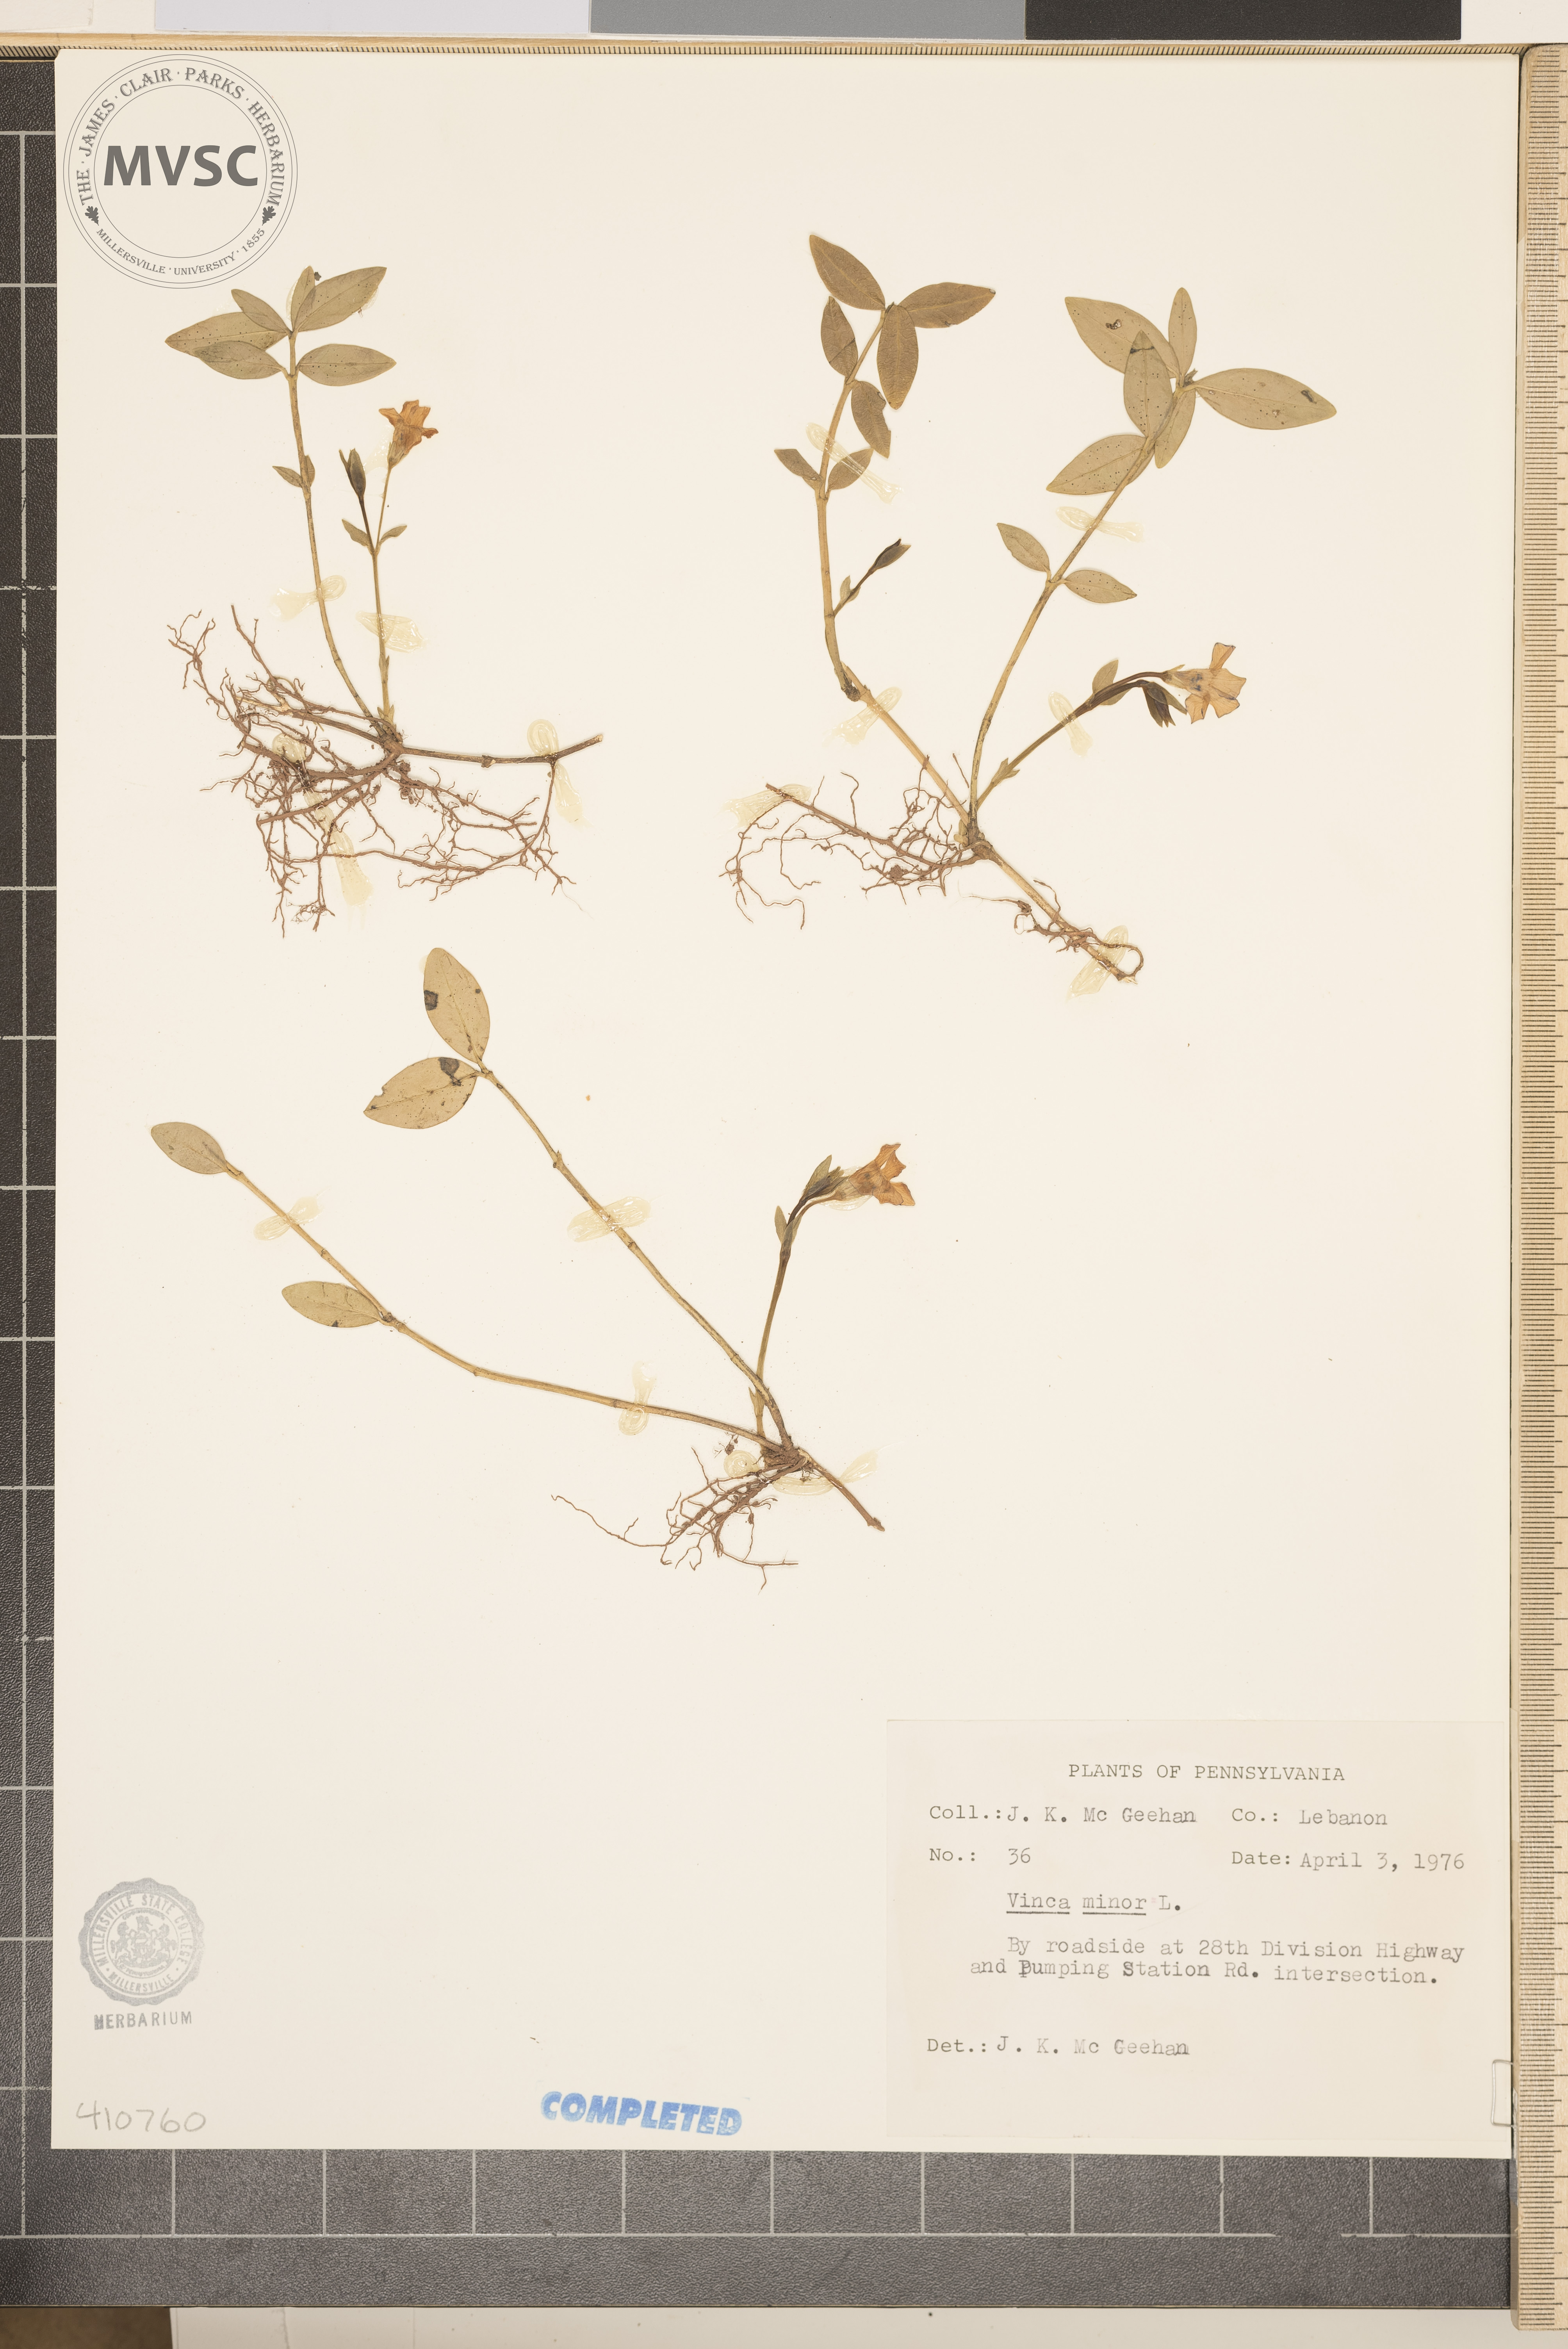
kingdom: Plantae
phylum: Tracheophyta
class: Magnoliopsida
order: Gentianales
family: Apocynaceae
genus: Vinca
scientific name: Vinca minor
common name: Lesser periwinkle
